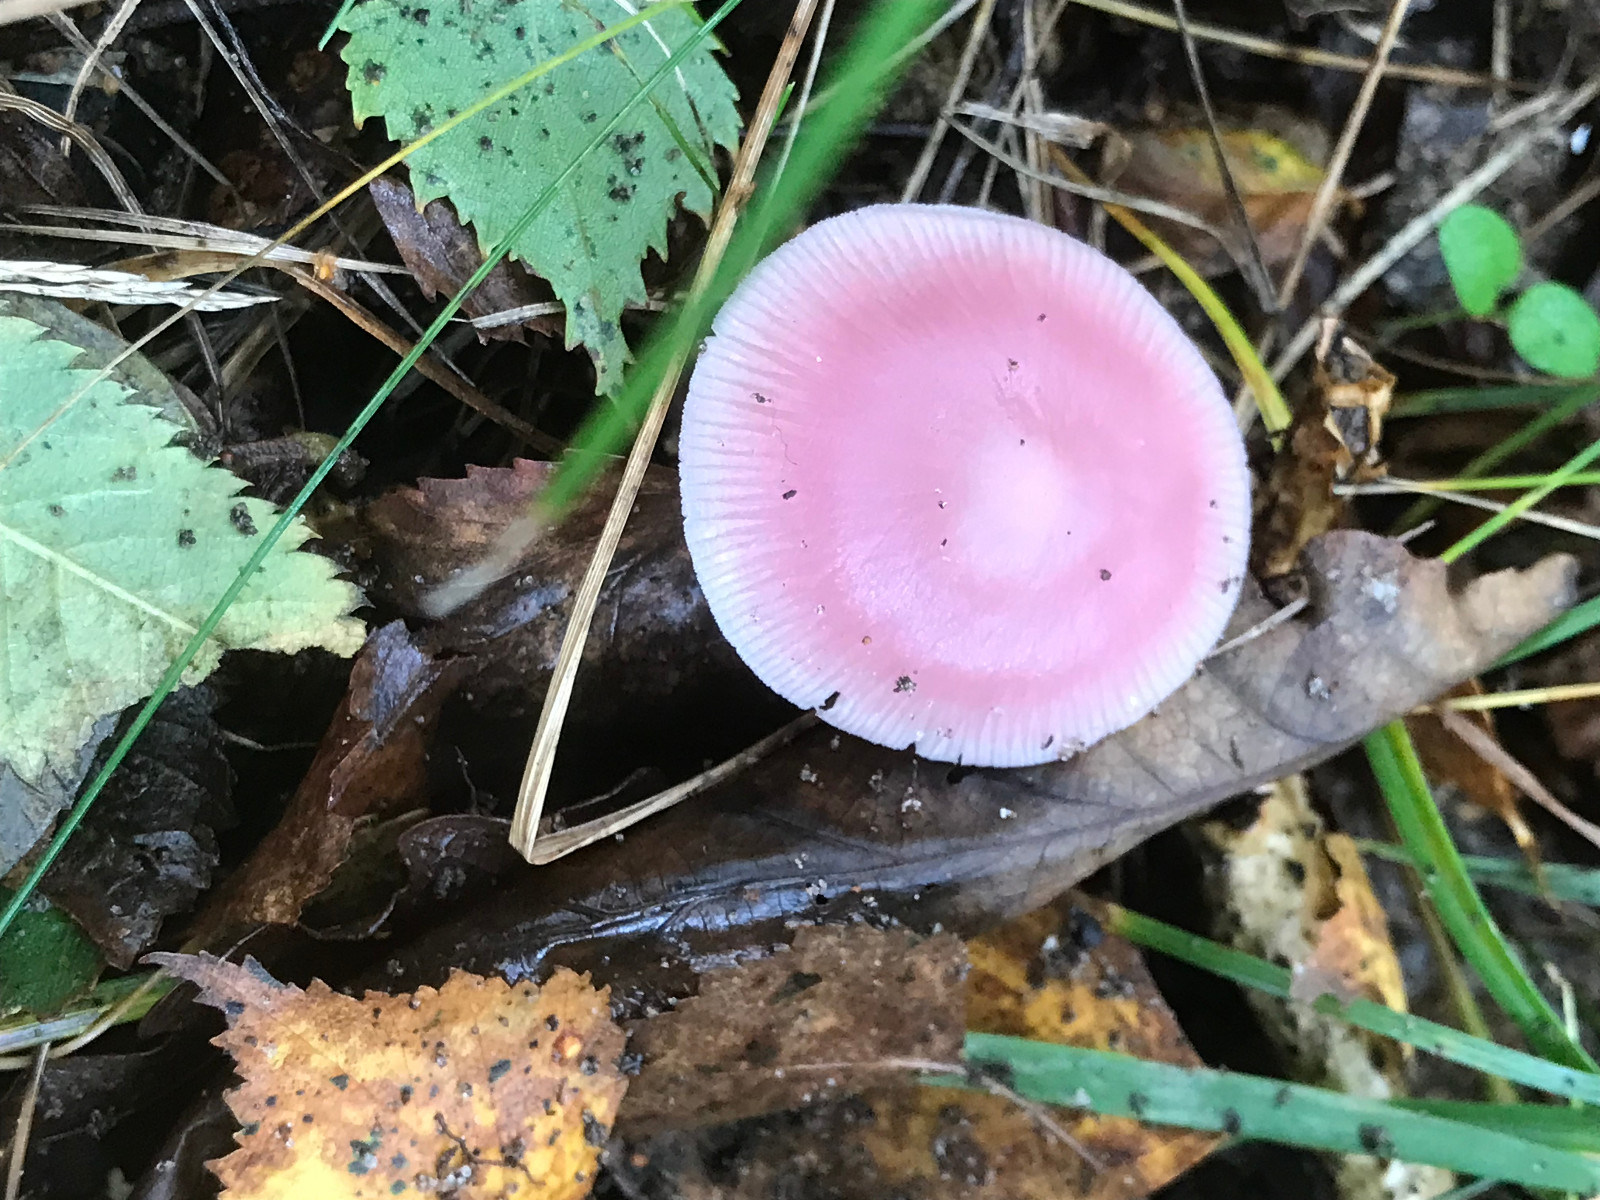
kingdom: Fungi
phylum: Basidiomycota
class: Agaricomycetes
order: Agaricales
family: Mycenaceae
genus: Mycena
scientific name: Mycena rosea
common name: rosa huesvamp
